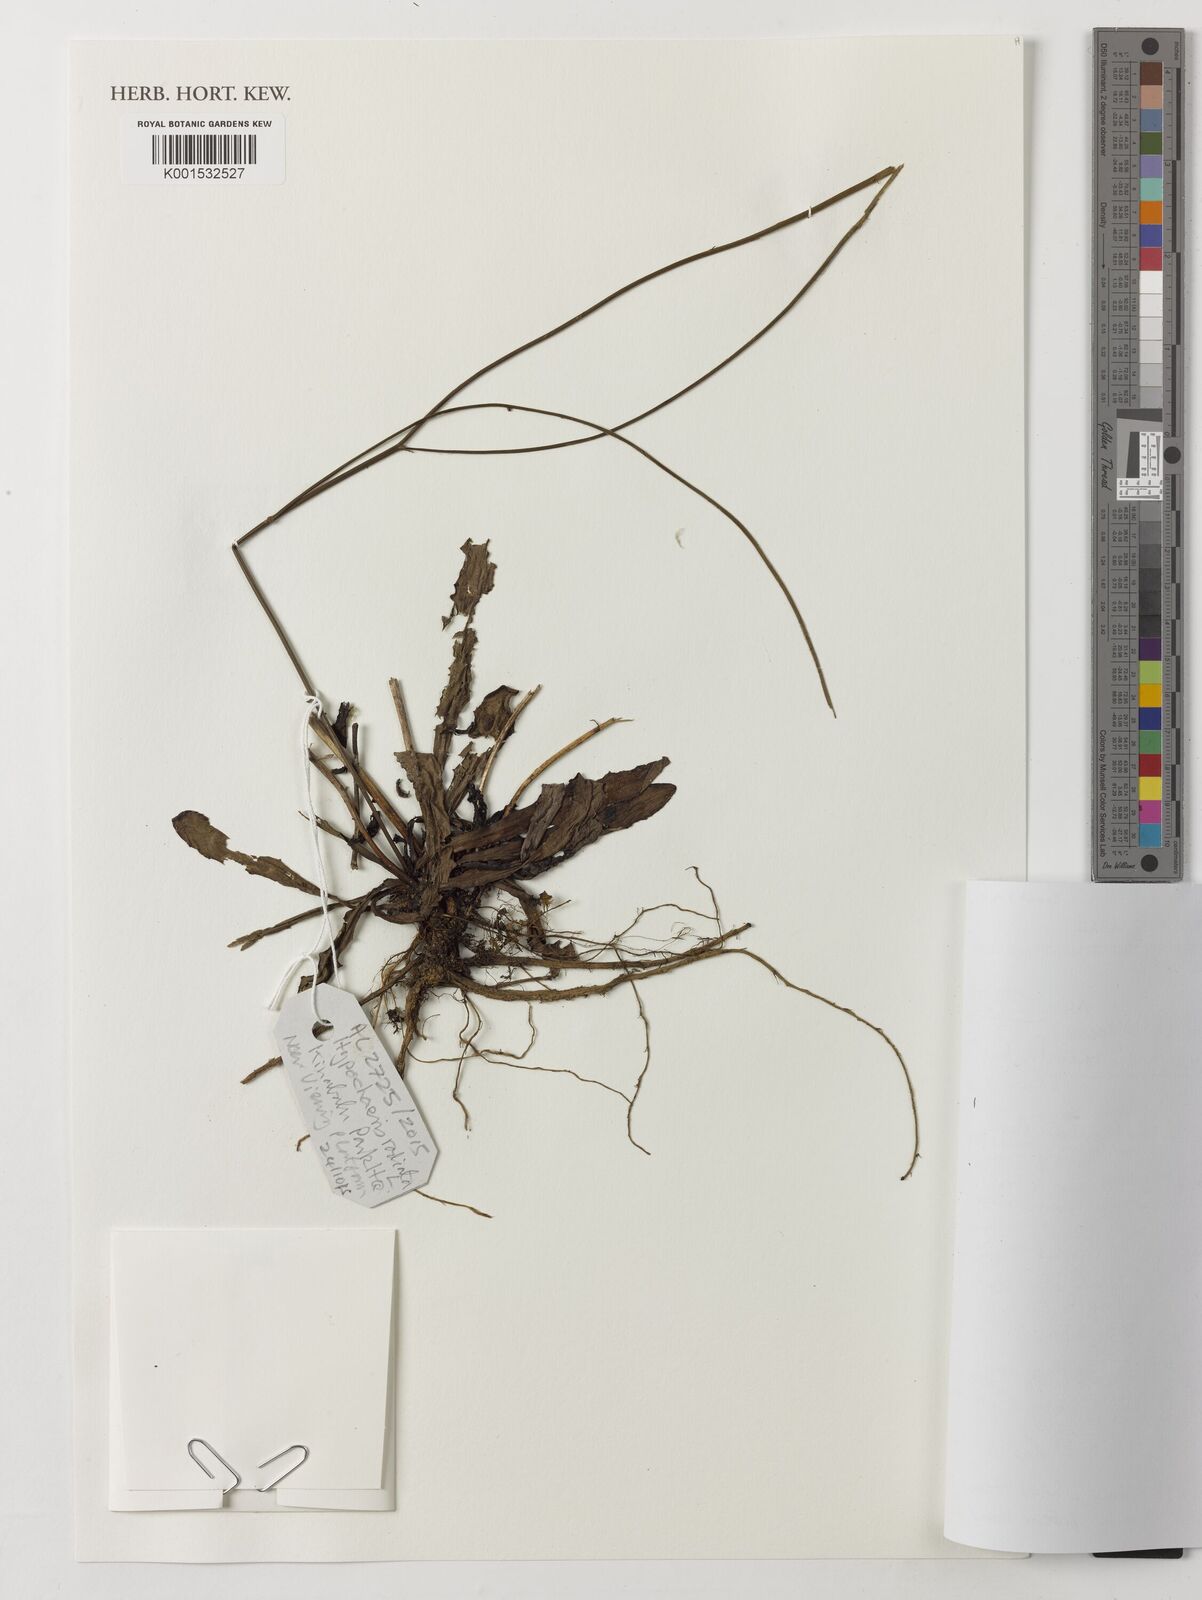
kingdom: Plantae
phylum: Tracheophyta
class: Magnoliopsida
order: Asterales
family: Asteraceae
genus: Hypochaeris
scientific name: Hypochaeris radicata
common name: Flatweed
